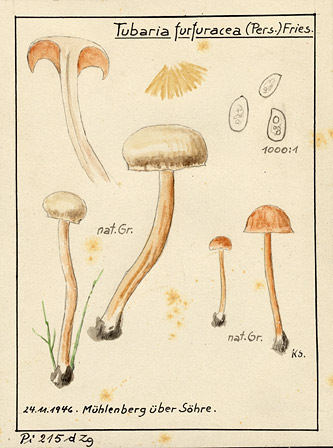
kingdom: Fungi
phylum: Basidiomycota
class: Agaricomycetes
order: Agaricales
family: Tubariaceae
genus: Tubaria
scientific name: Tubaria furfuracea
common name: Scurfy twiglet
